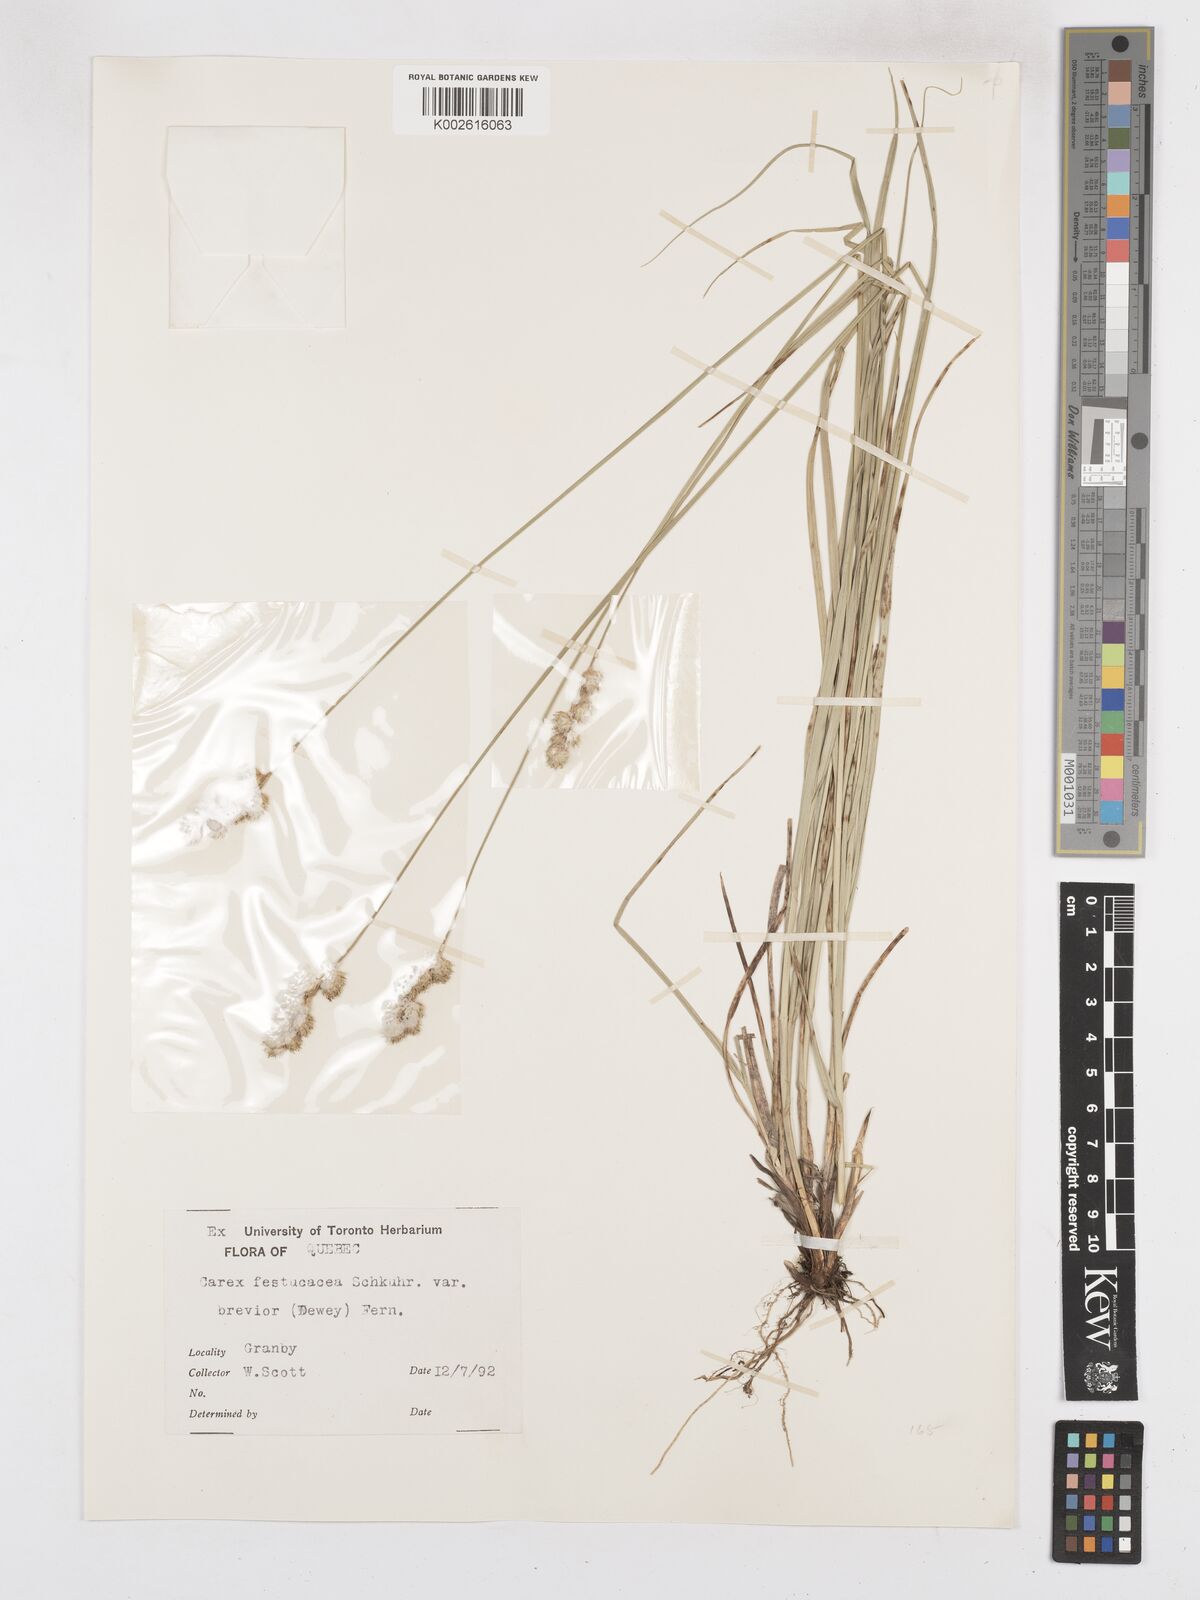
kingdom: Plantae
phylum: Tracheophyta
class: Liliopsida
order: Poales
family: Cyperaceae
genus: Carex
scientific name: Carex festucacea
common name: Fescue oval sedge
